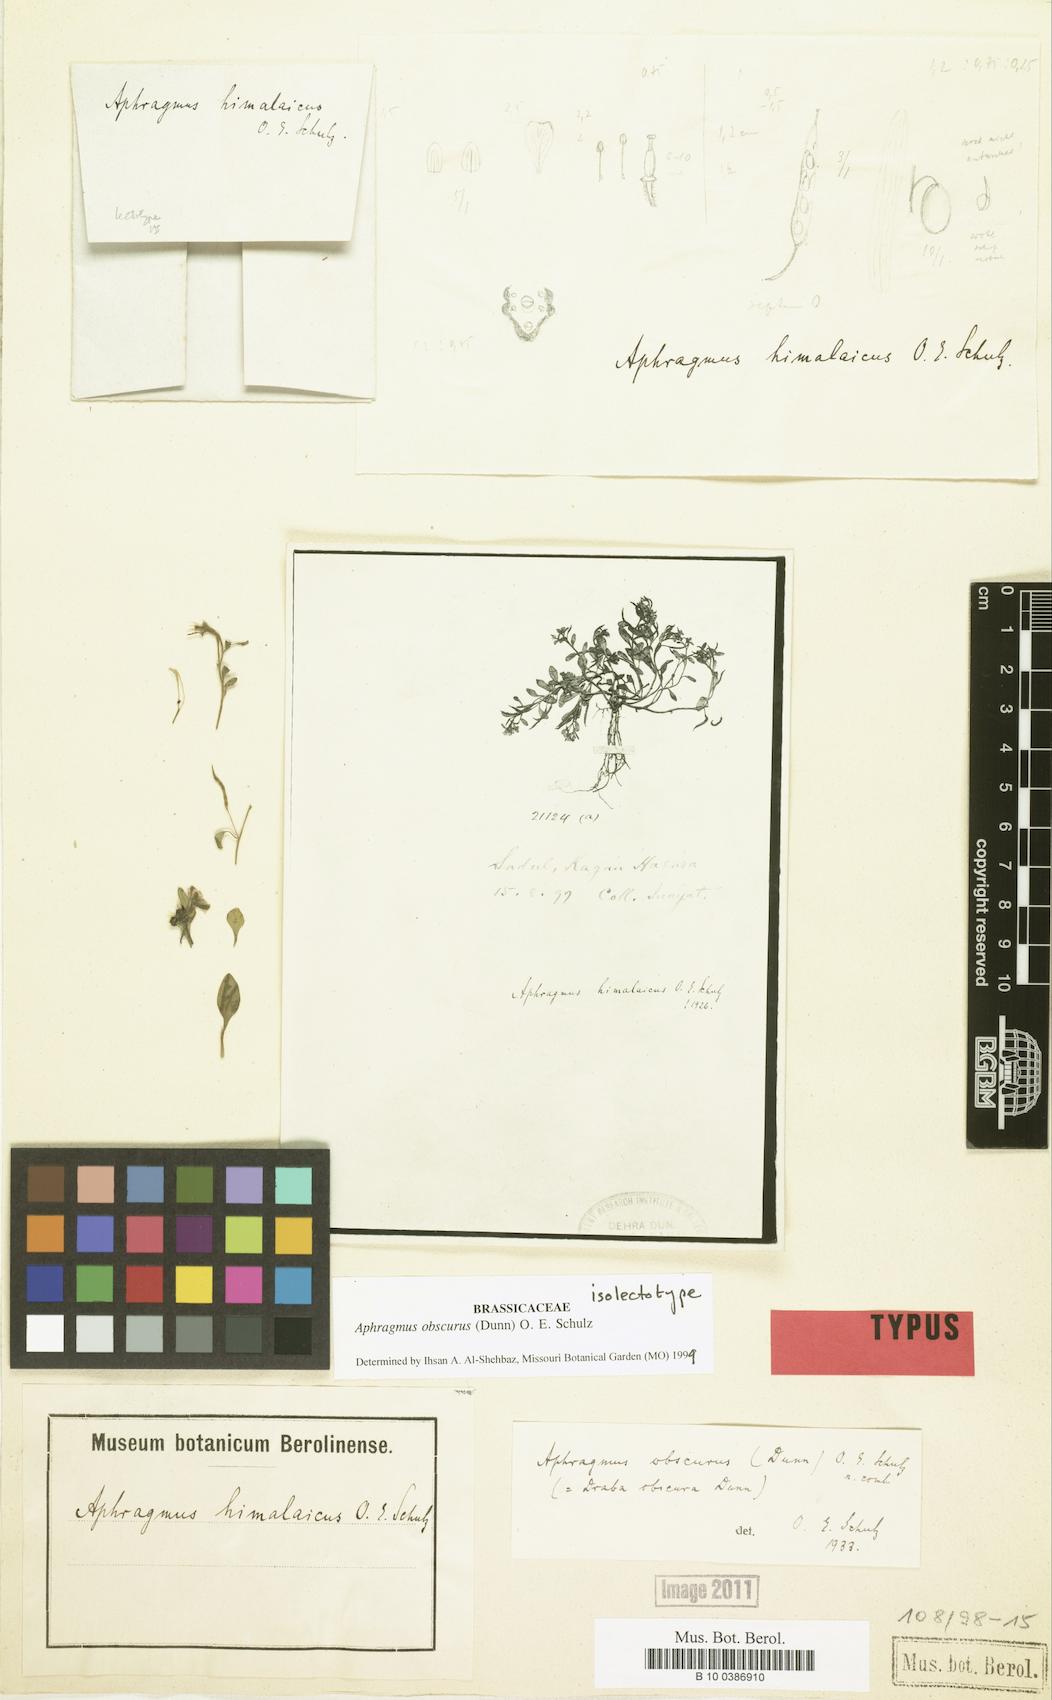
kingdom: Plantae
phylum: Tracheophyta
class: Magnoliopsida
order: Brassicales
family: Brassicaceae
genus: Aphragmus
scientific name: Aphragmus obscurus
